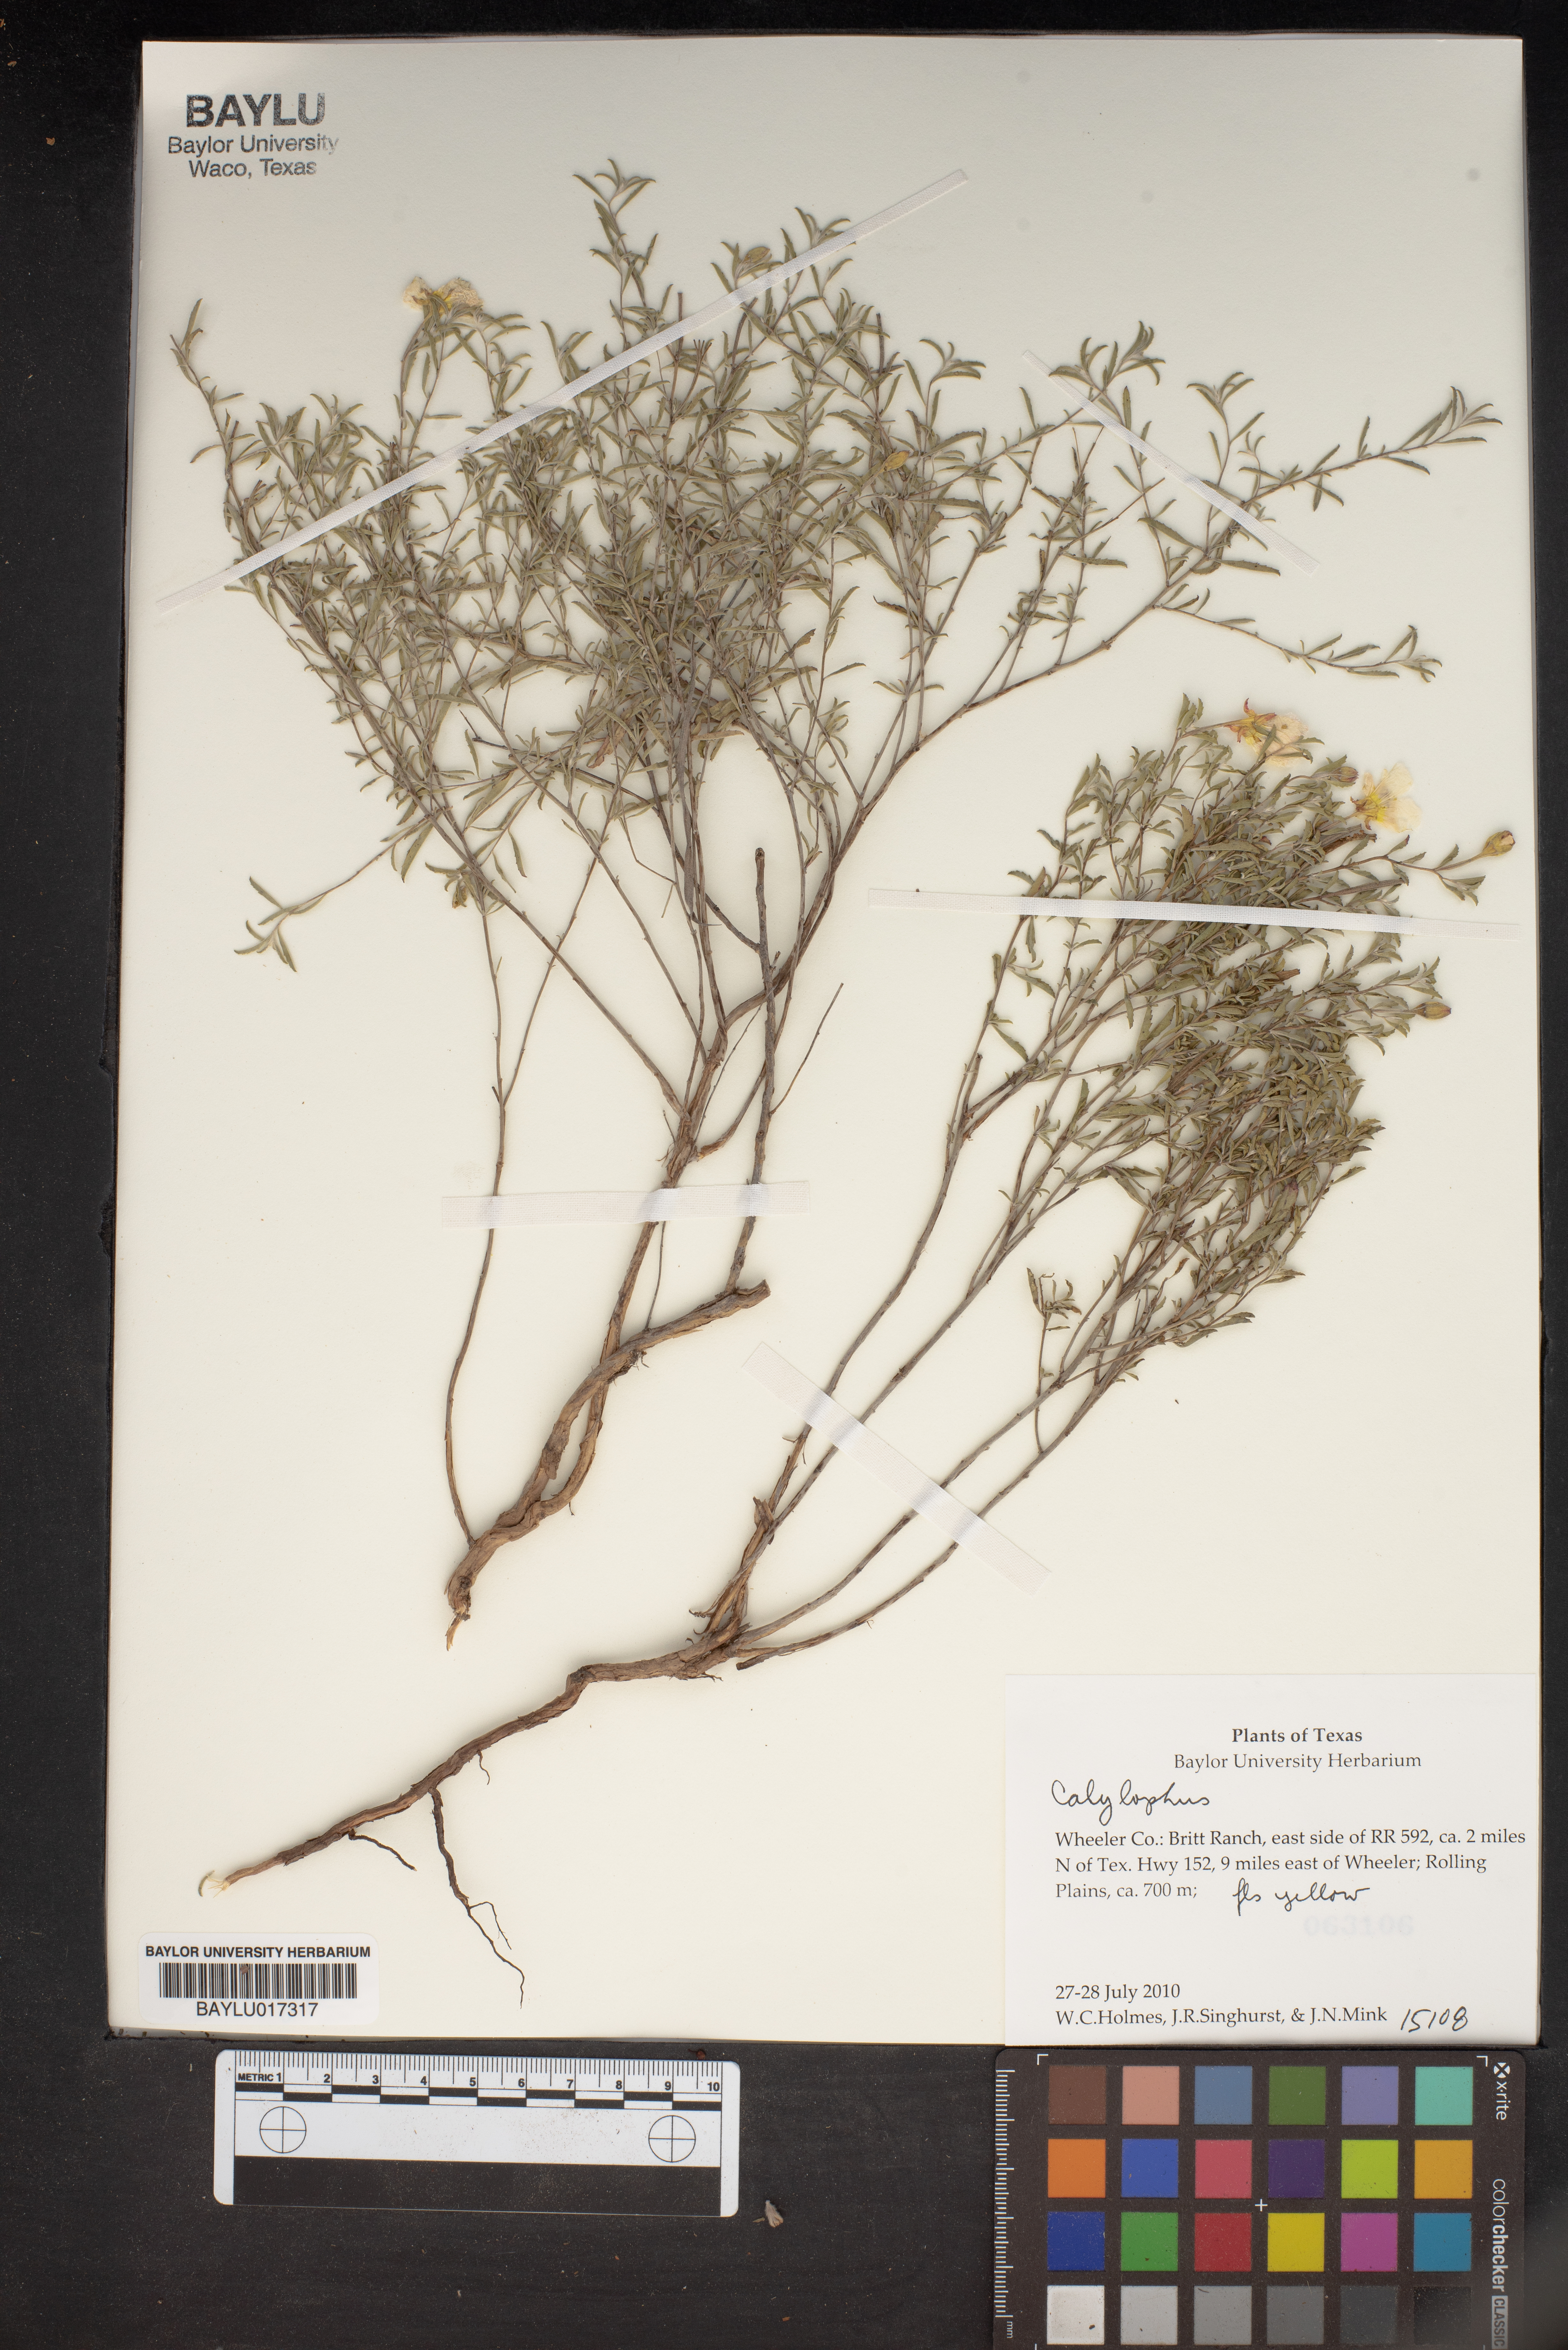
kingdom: Plantae
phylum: Tracheophyta
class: Magnoliopsida
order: Myrtales
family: Onagraceae
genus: Oenothera
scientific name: Oenothera
